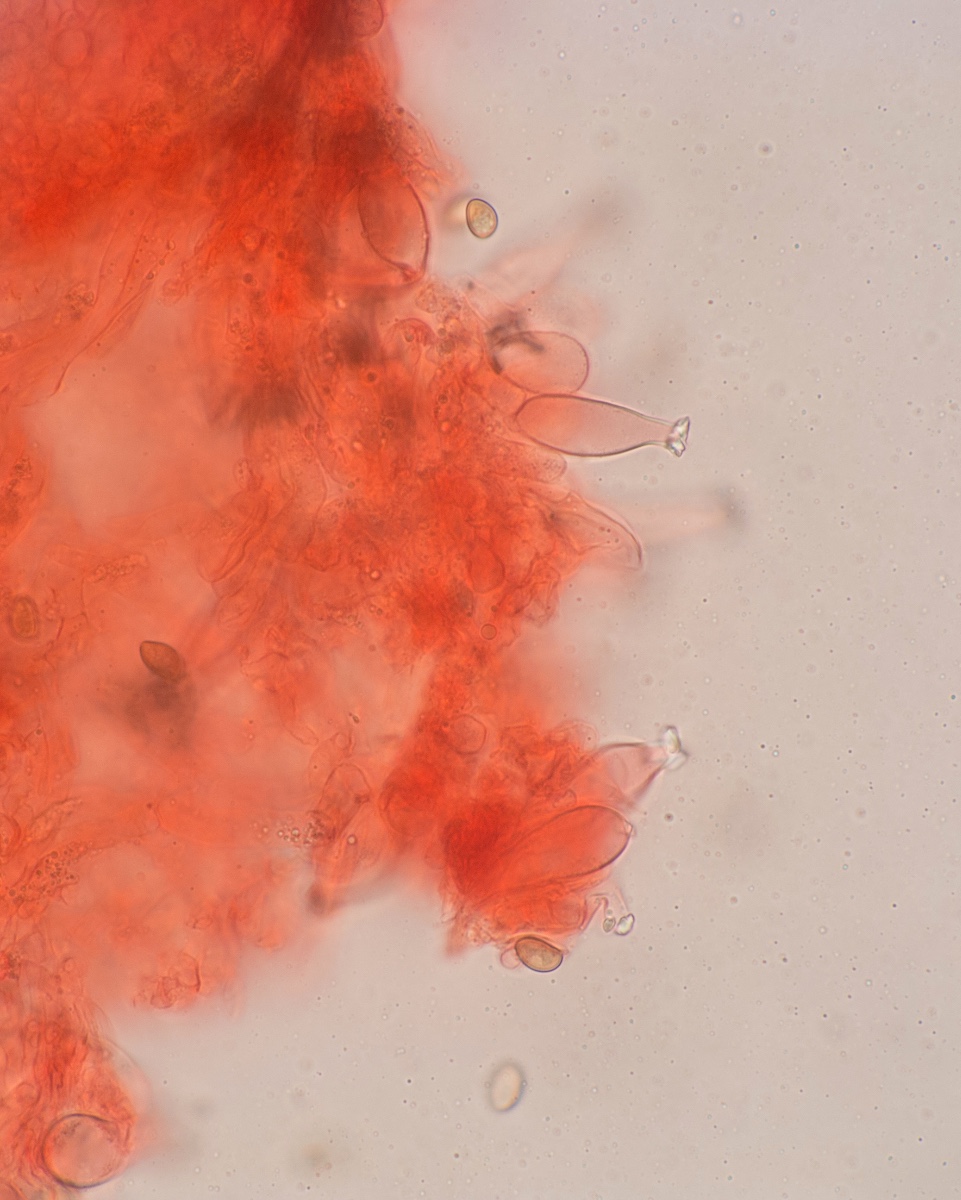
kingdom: Fungi
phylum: Basidiomycota
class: Agaricomycetes
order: Agaricales
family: Inocybaceae
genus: Inocybe
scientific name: Inocybe mystica
